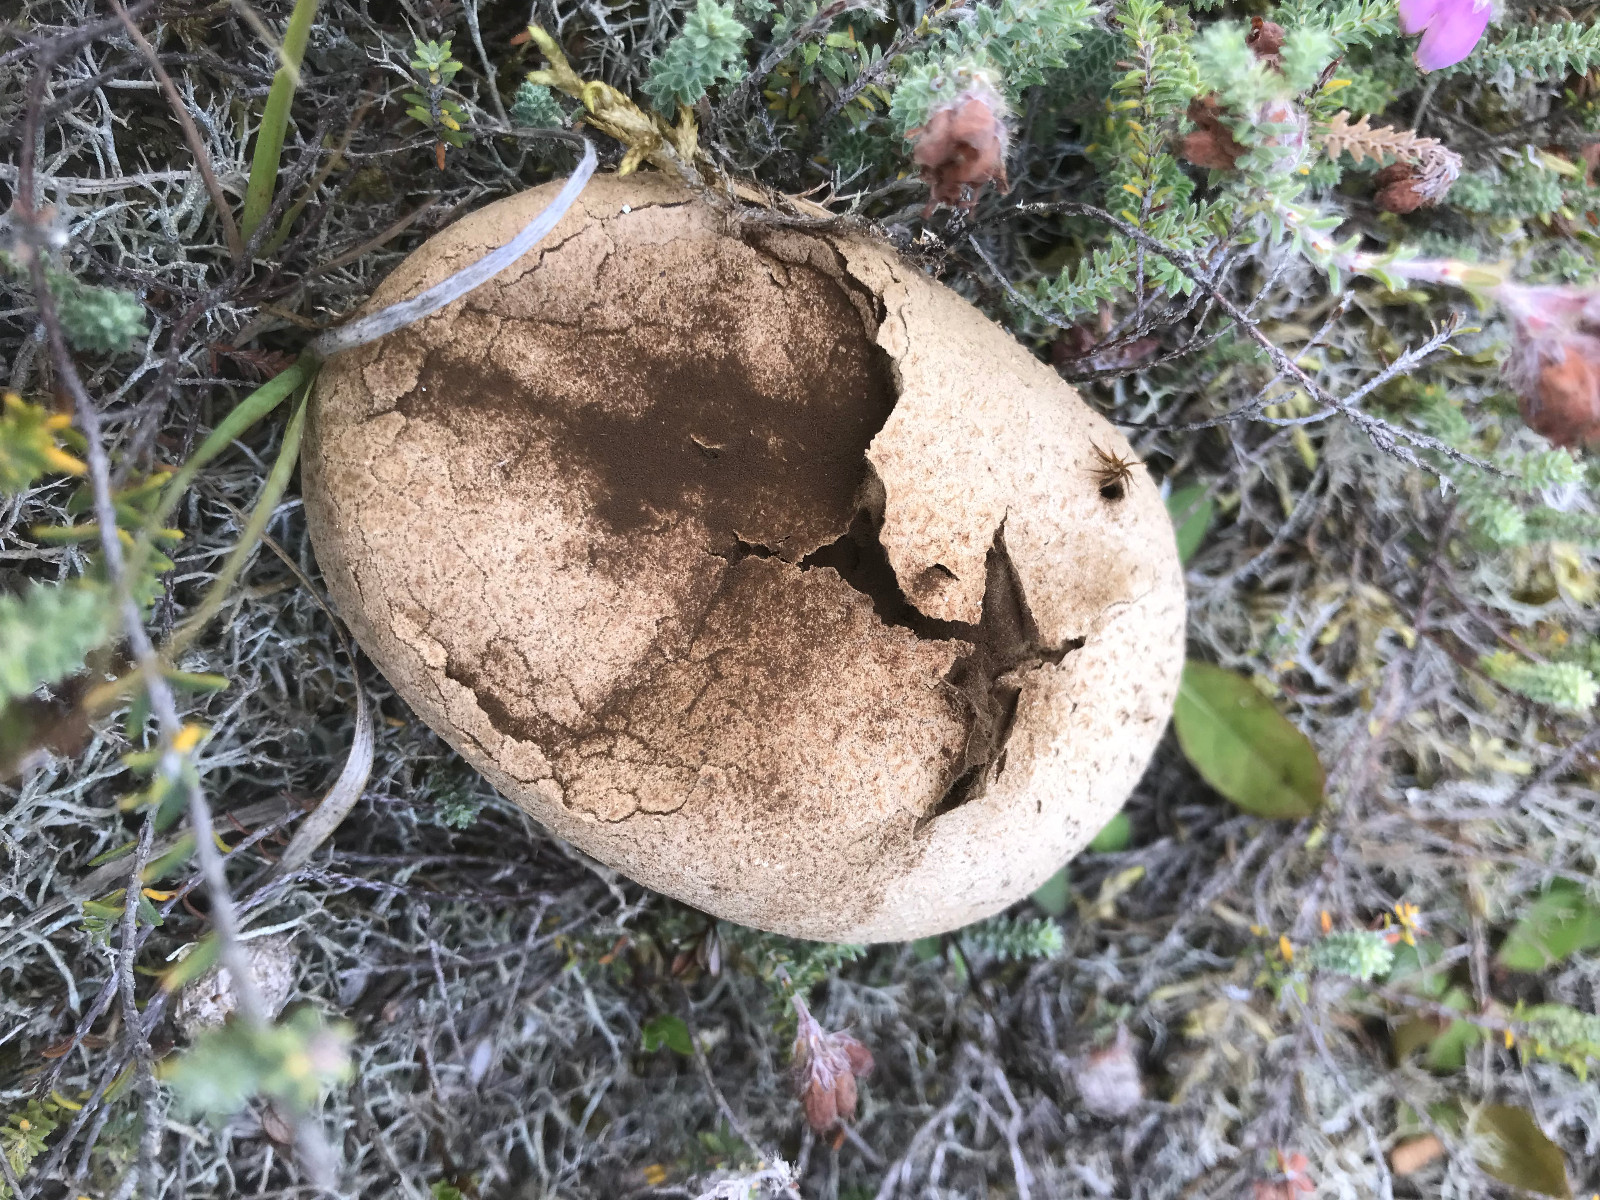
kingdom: Fungi
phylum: Basidiomycota
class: Agaricomycetes
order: Agaricales
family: Lycoperdaceae
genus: Bovistella
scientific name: Bovistella utriformis
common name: skællet støvbold
